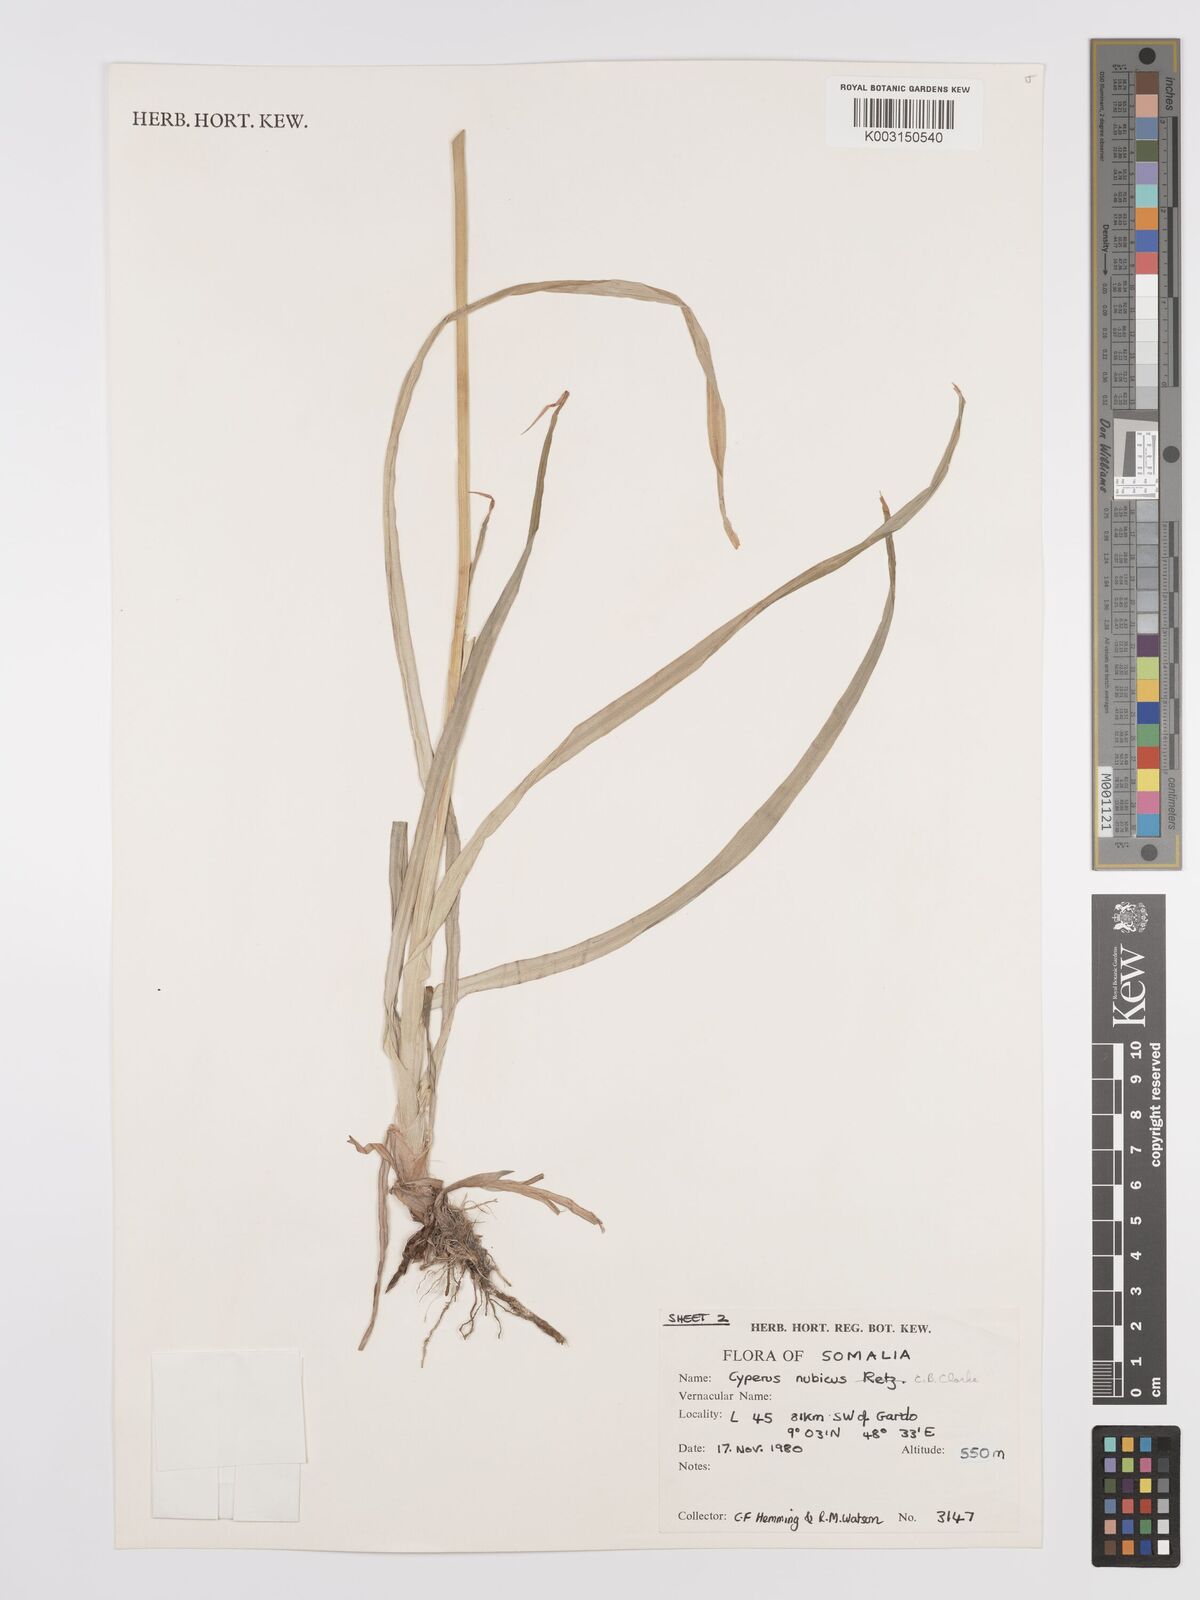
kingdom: Plantae
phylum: Tracheophyta
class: Liliopsida
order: Poales
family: Cyperaceae
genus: Cyperus
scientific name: Cyperus bifax
